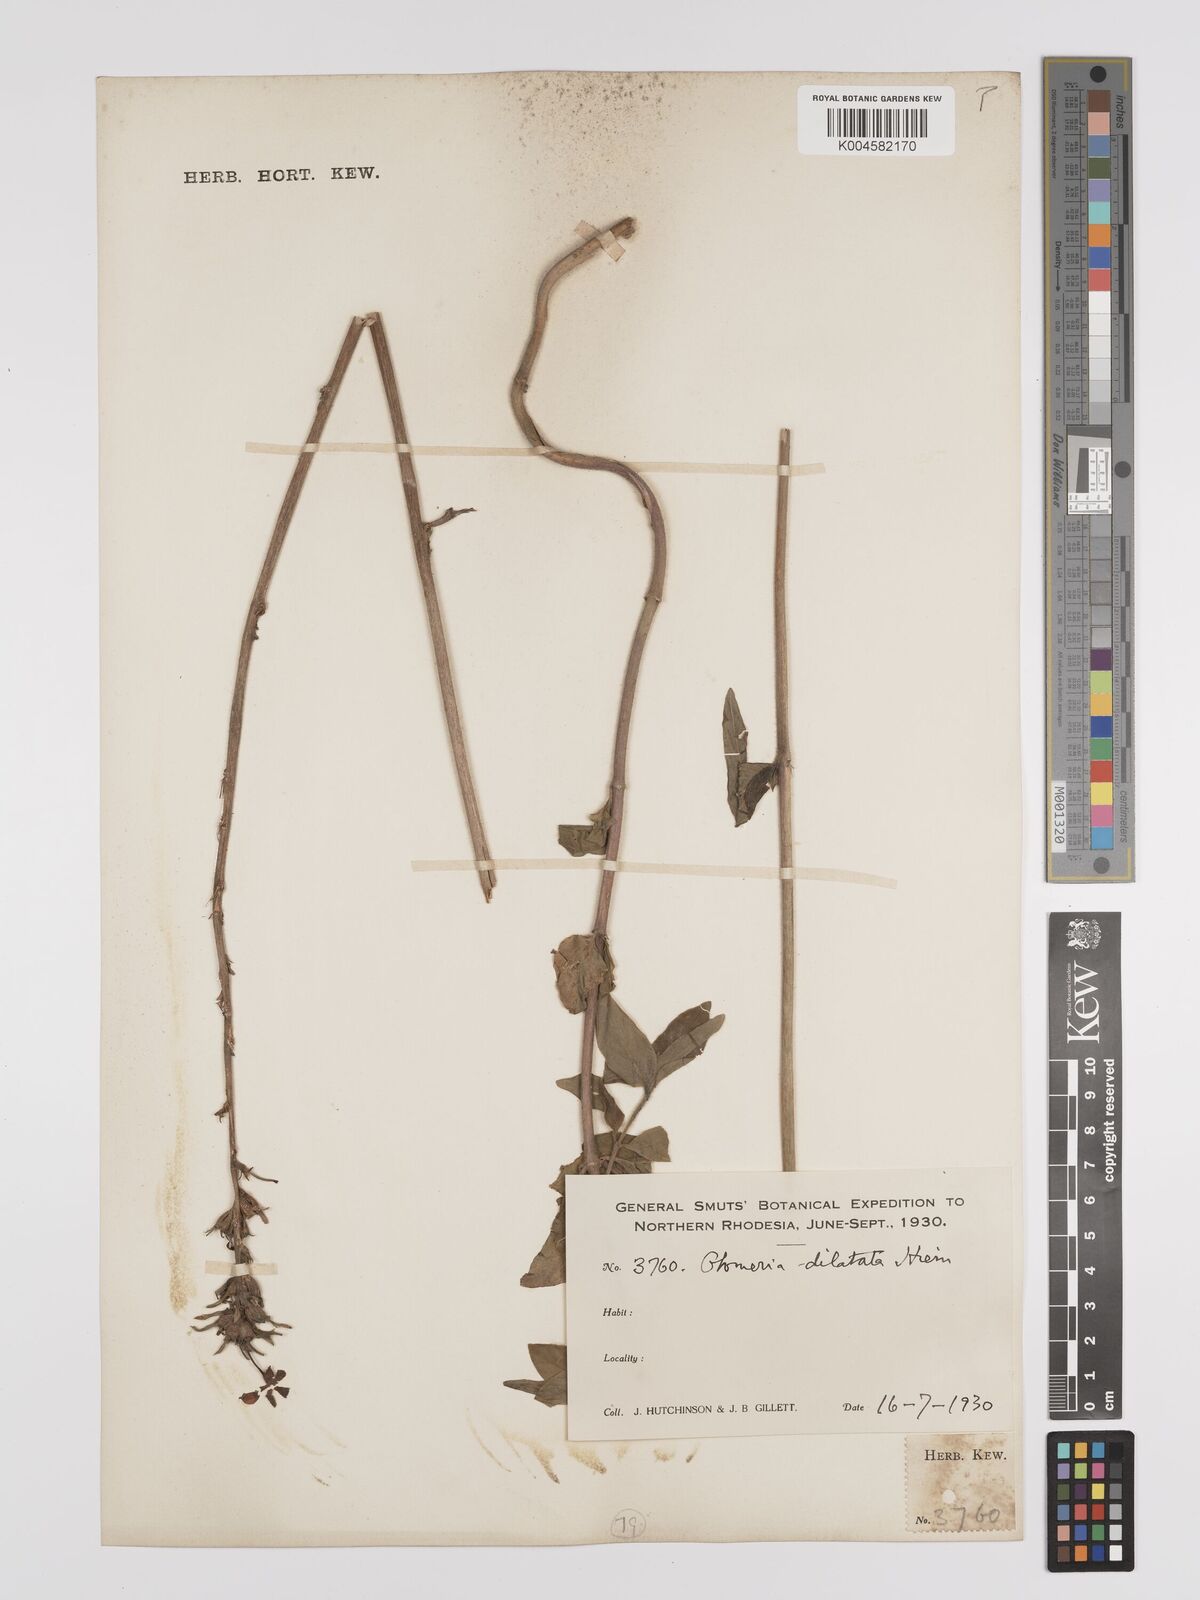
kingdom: Plantae
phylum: Tracheophyta
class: Magnoliopsida
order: Gentianales
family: Rubiaceae
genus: Otomeria
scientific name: Otomeria elatior
